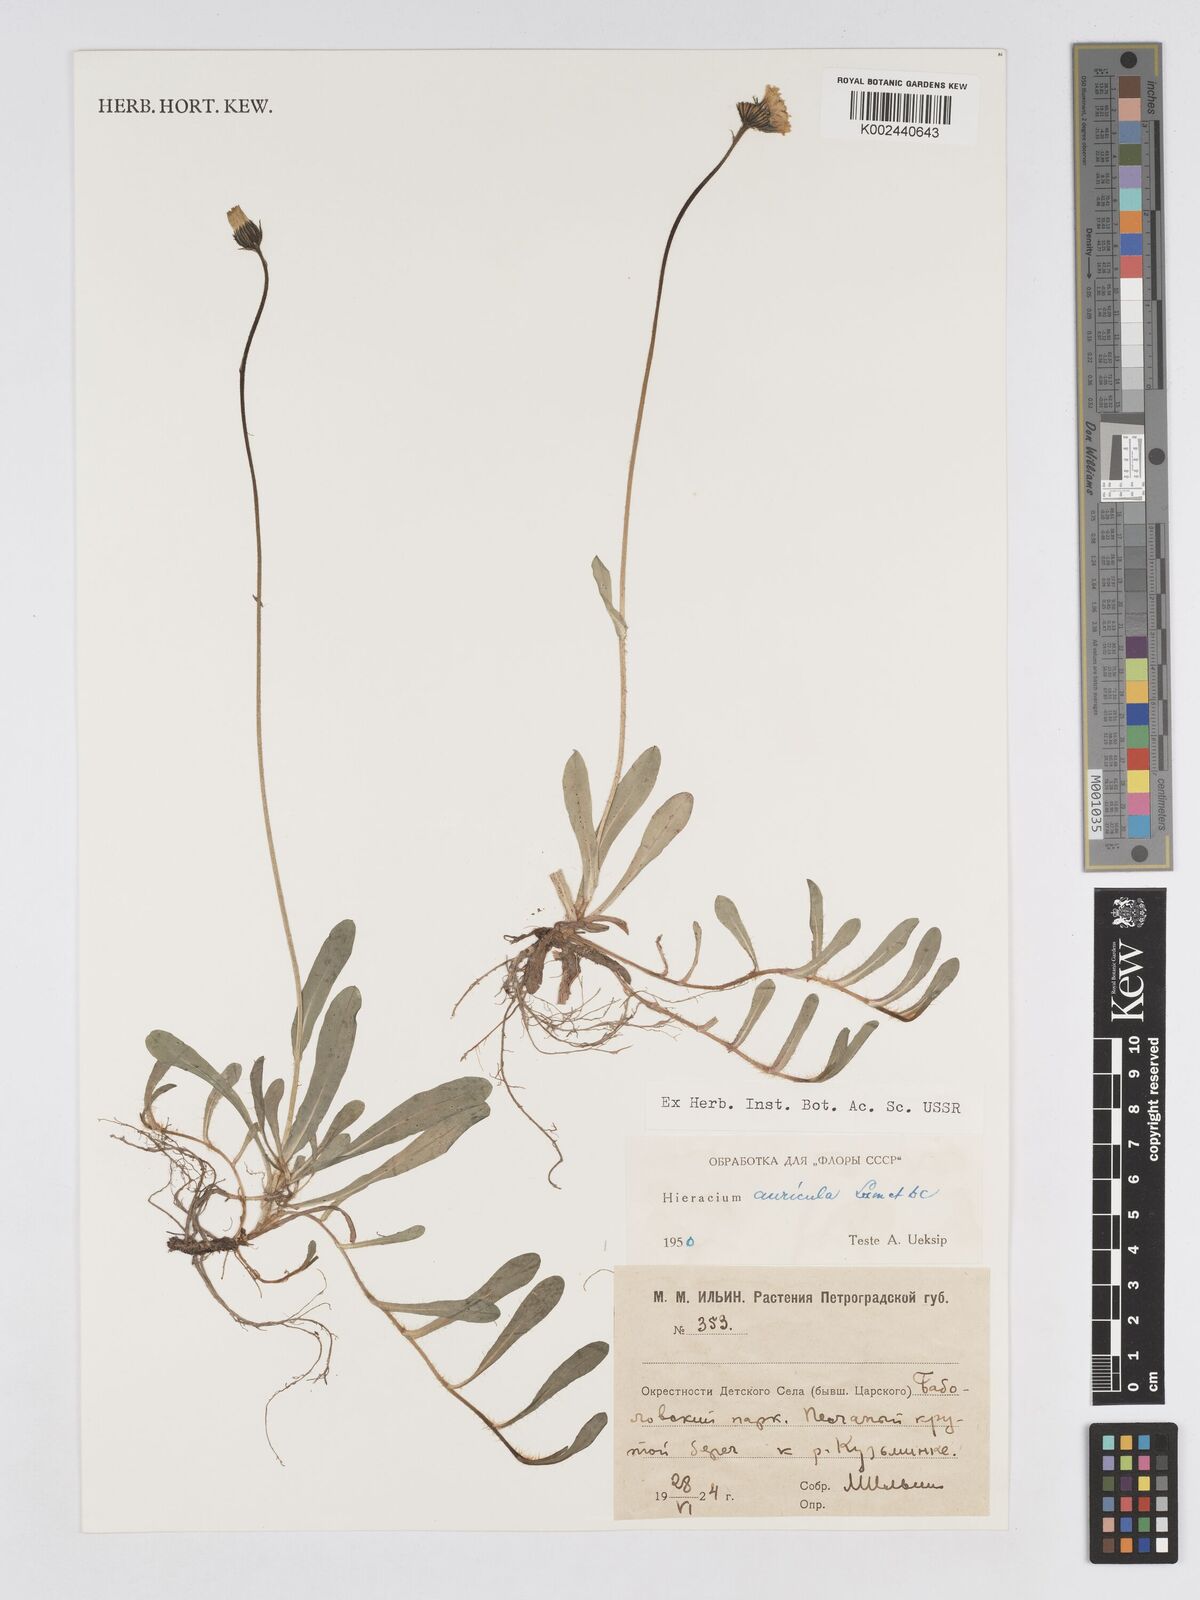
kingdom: Plantae
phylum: Tracheophyta
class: Magnoliopsida
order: Asterales
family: Asteraceae
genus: Pilosella
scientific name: Pilosella floribunda
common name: Glaucous hawkweed
